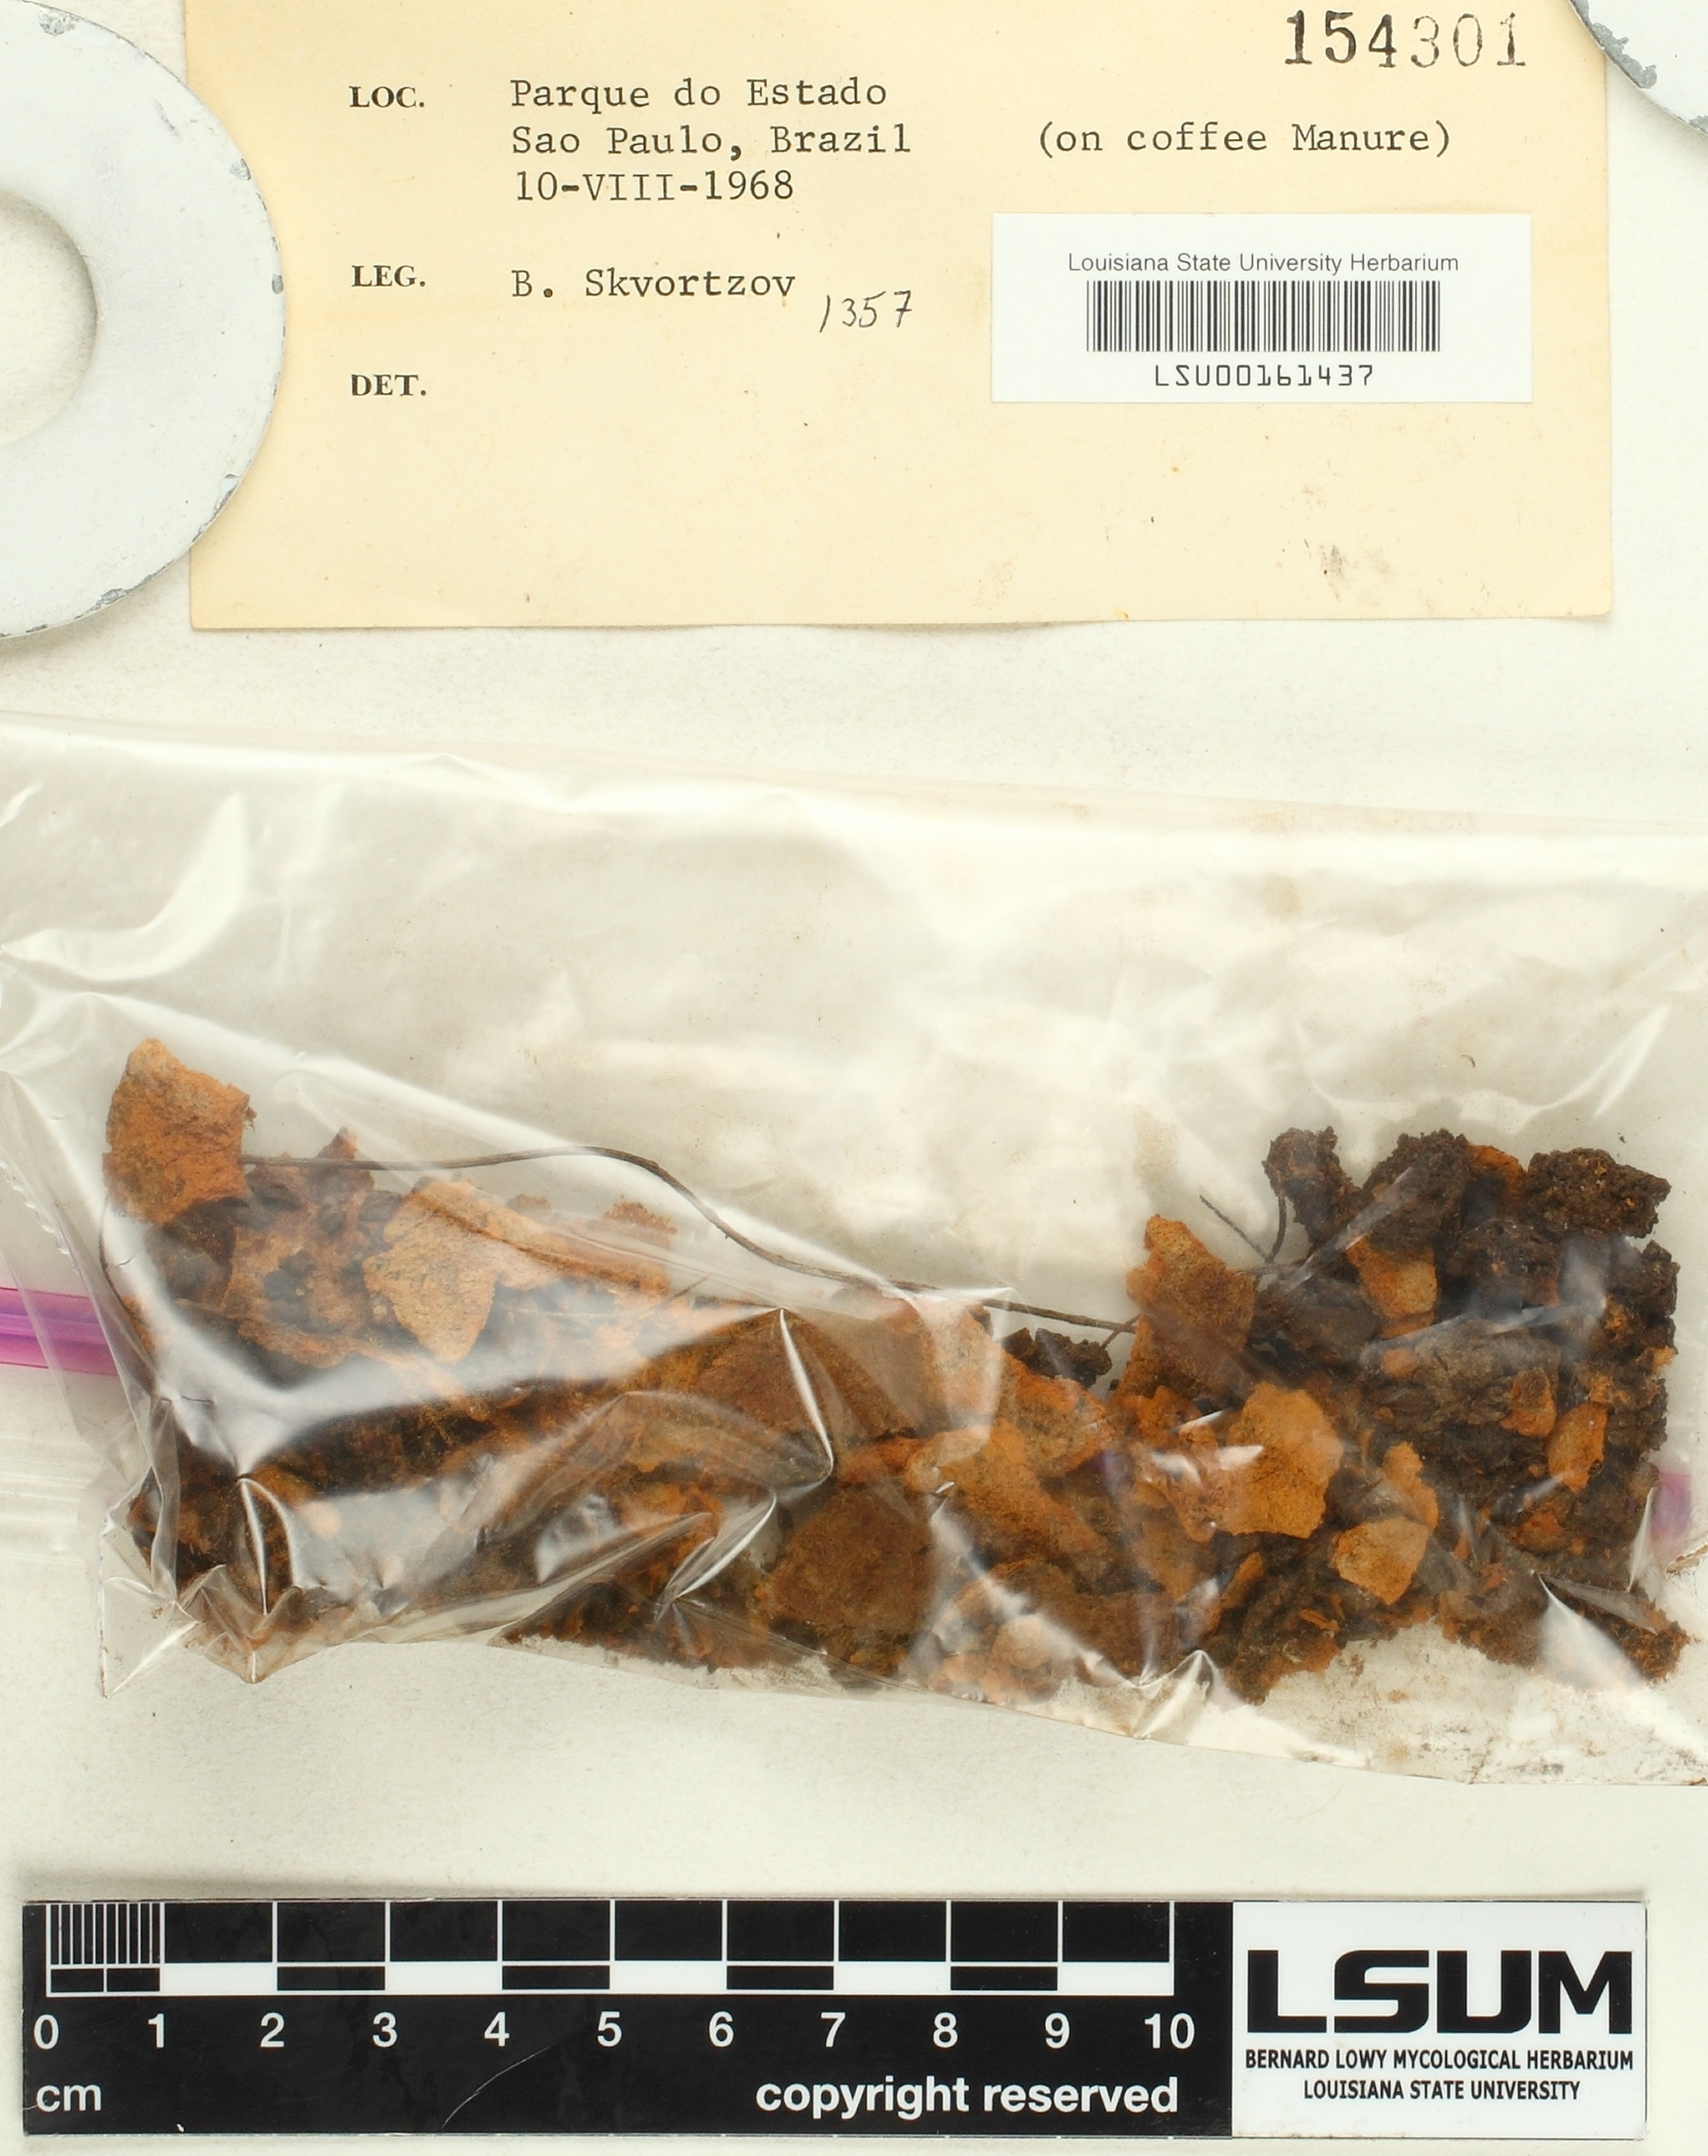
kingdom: Fungi
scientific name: Fungi
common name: Fungi
